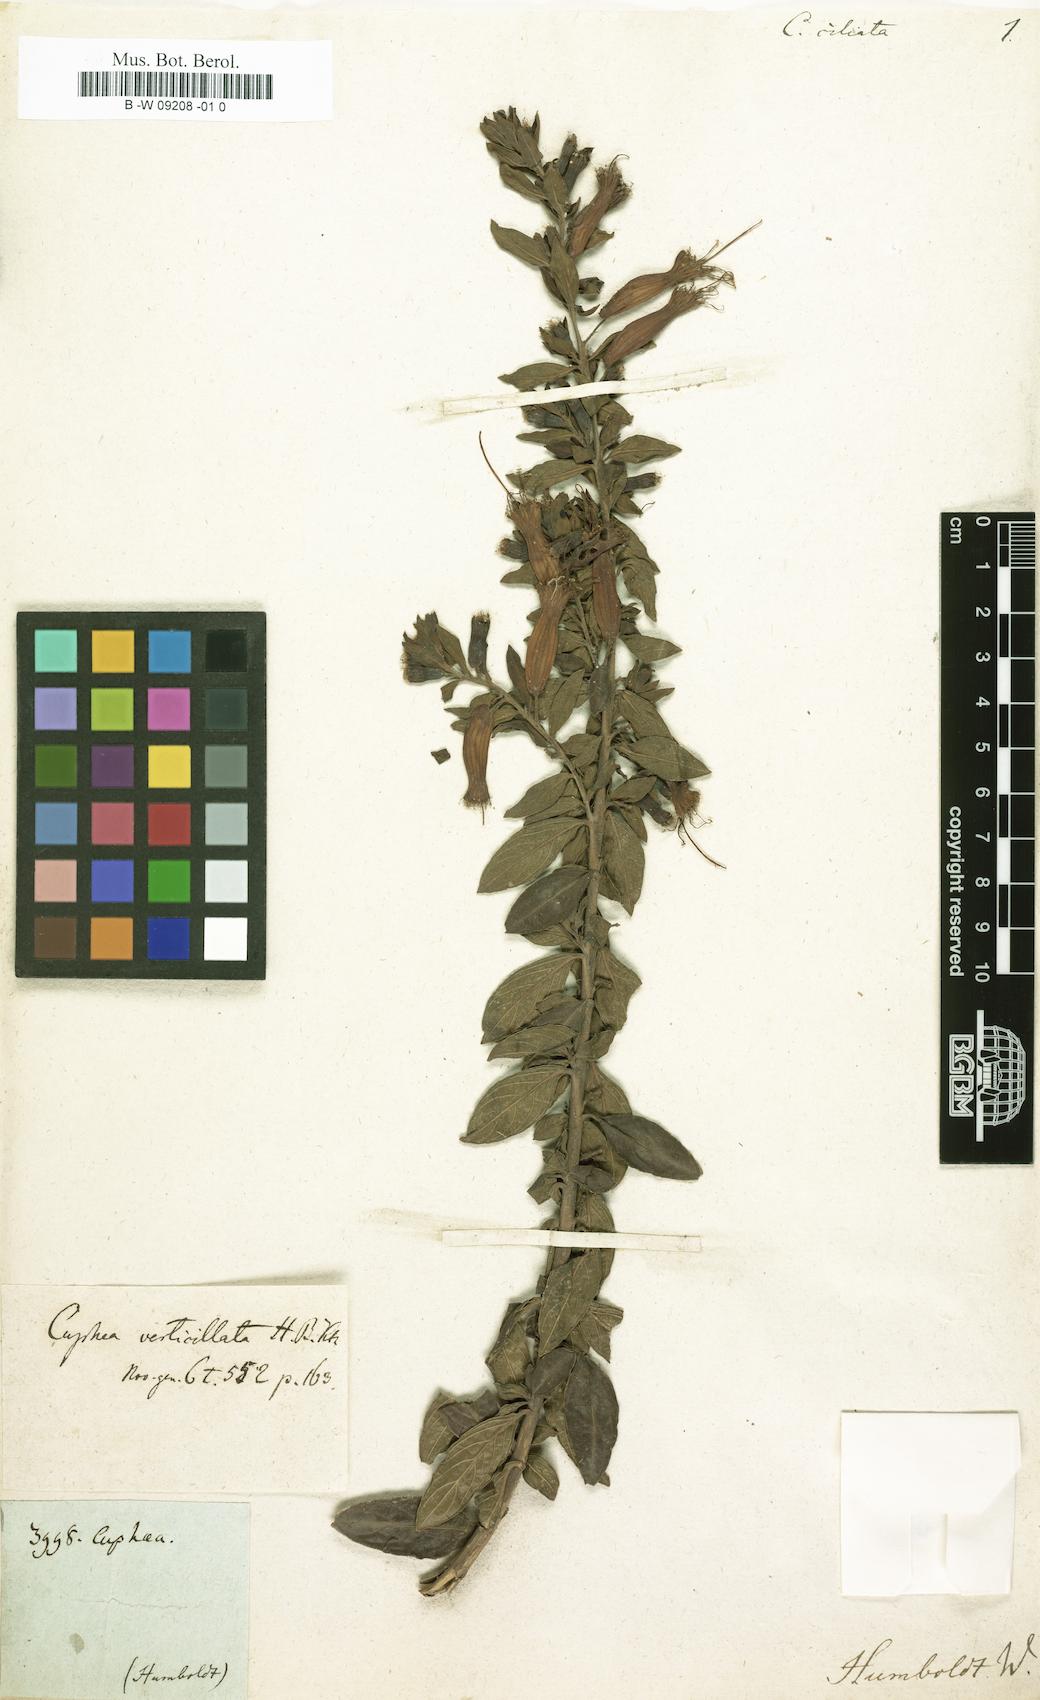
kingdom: Plantae
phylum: Tracheophyta
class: Magnoliopsida
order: Myrtales
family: Lythraceae
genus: Cuphea
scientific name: Cuphea ciliata
